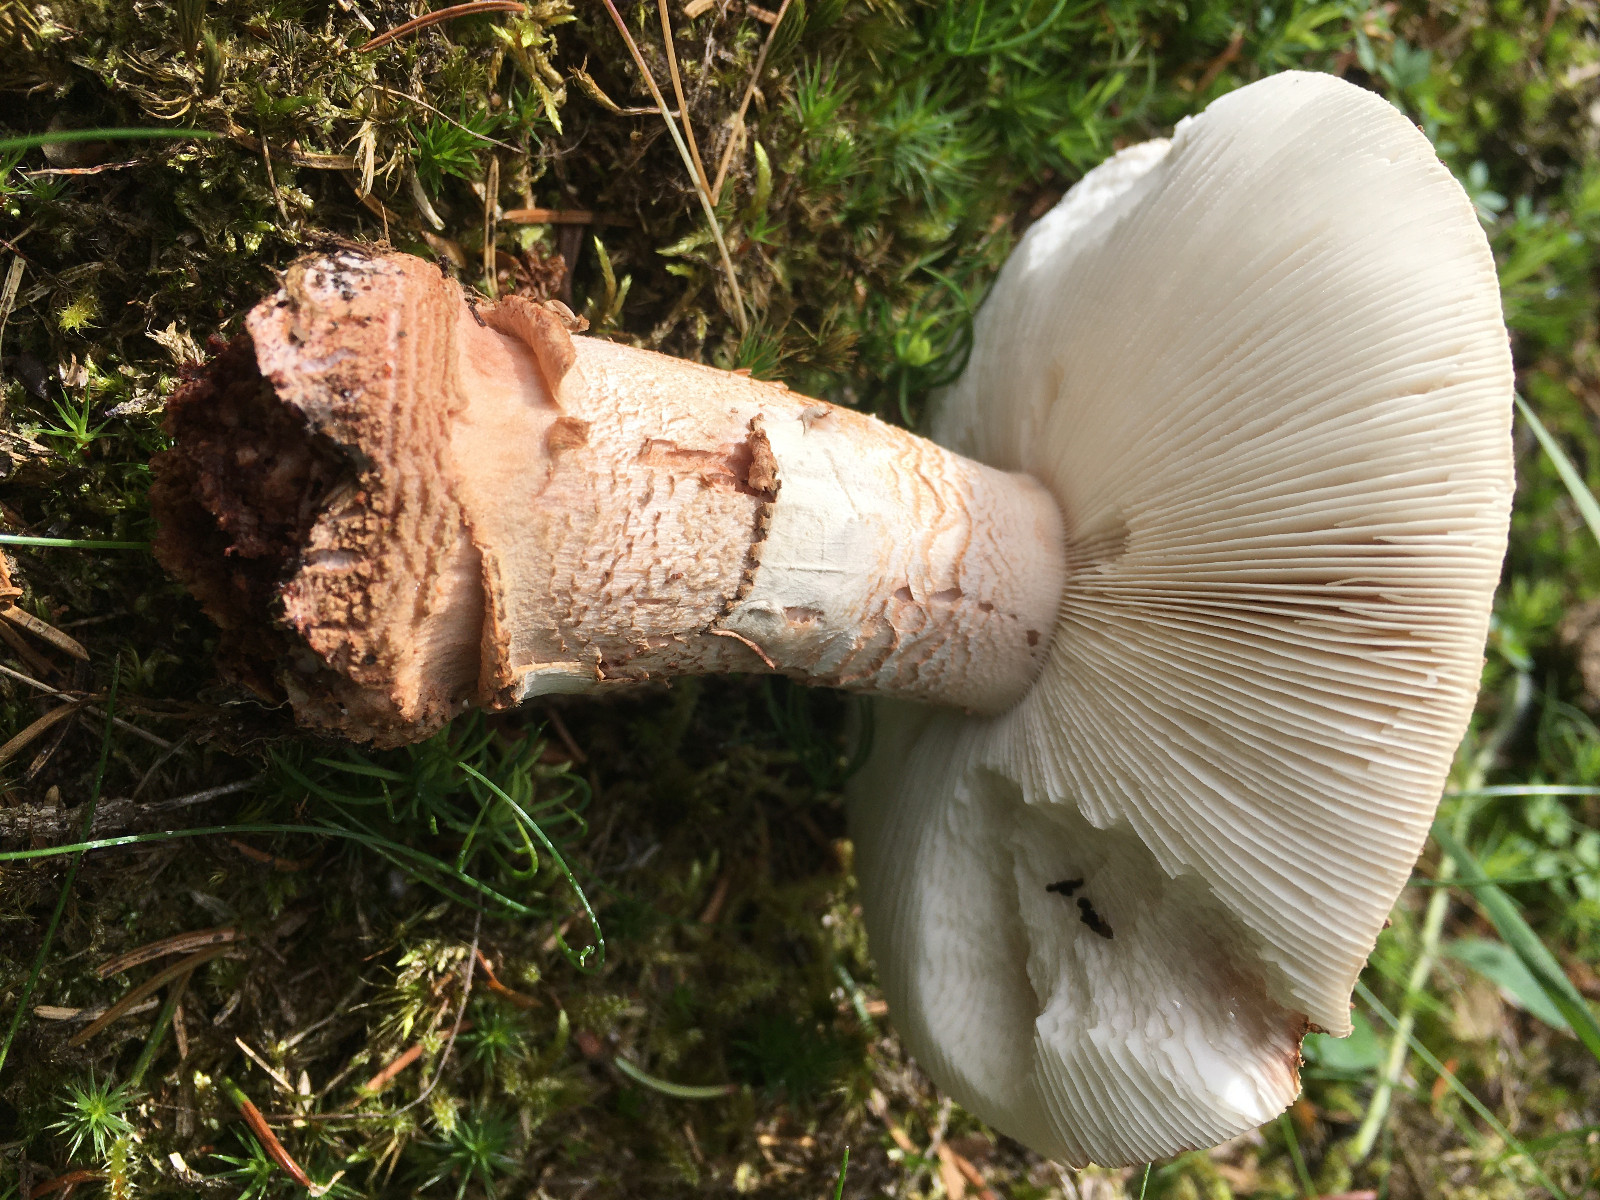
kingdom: Fungi
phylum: Basidiomycota
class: Agaricomycetes
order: Agaricales
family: Amanitaceae
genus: Amanita
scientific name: Amanita rubescens
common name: rødmende fluesvamp
